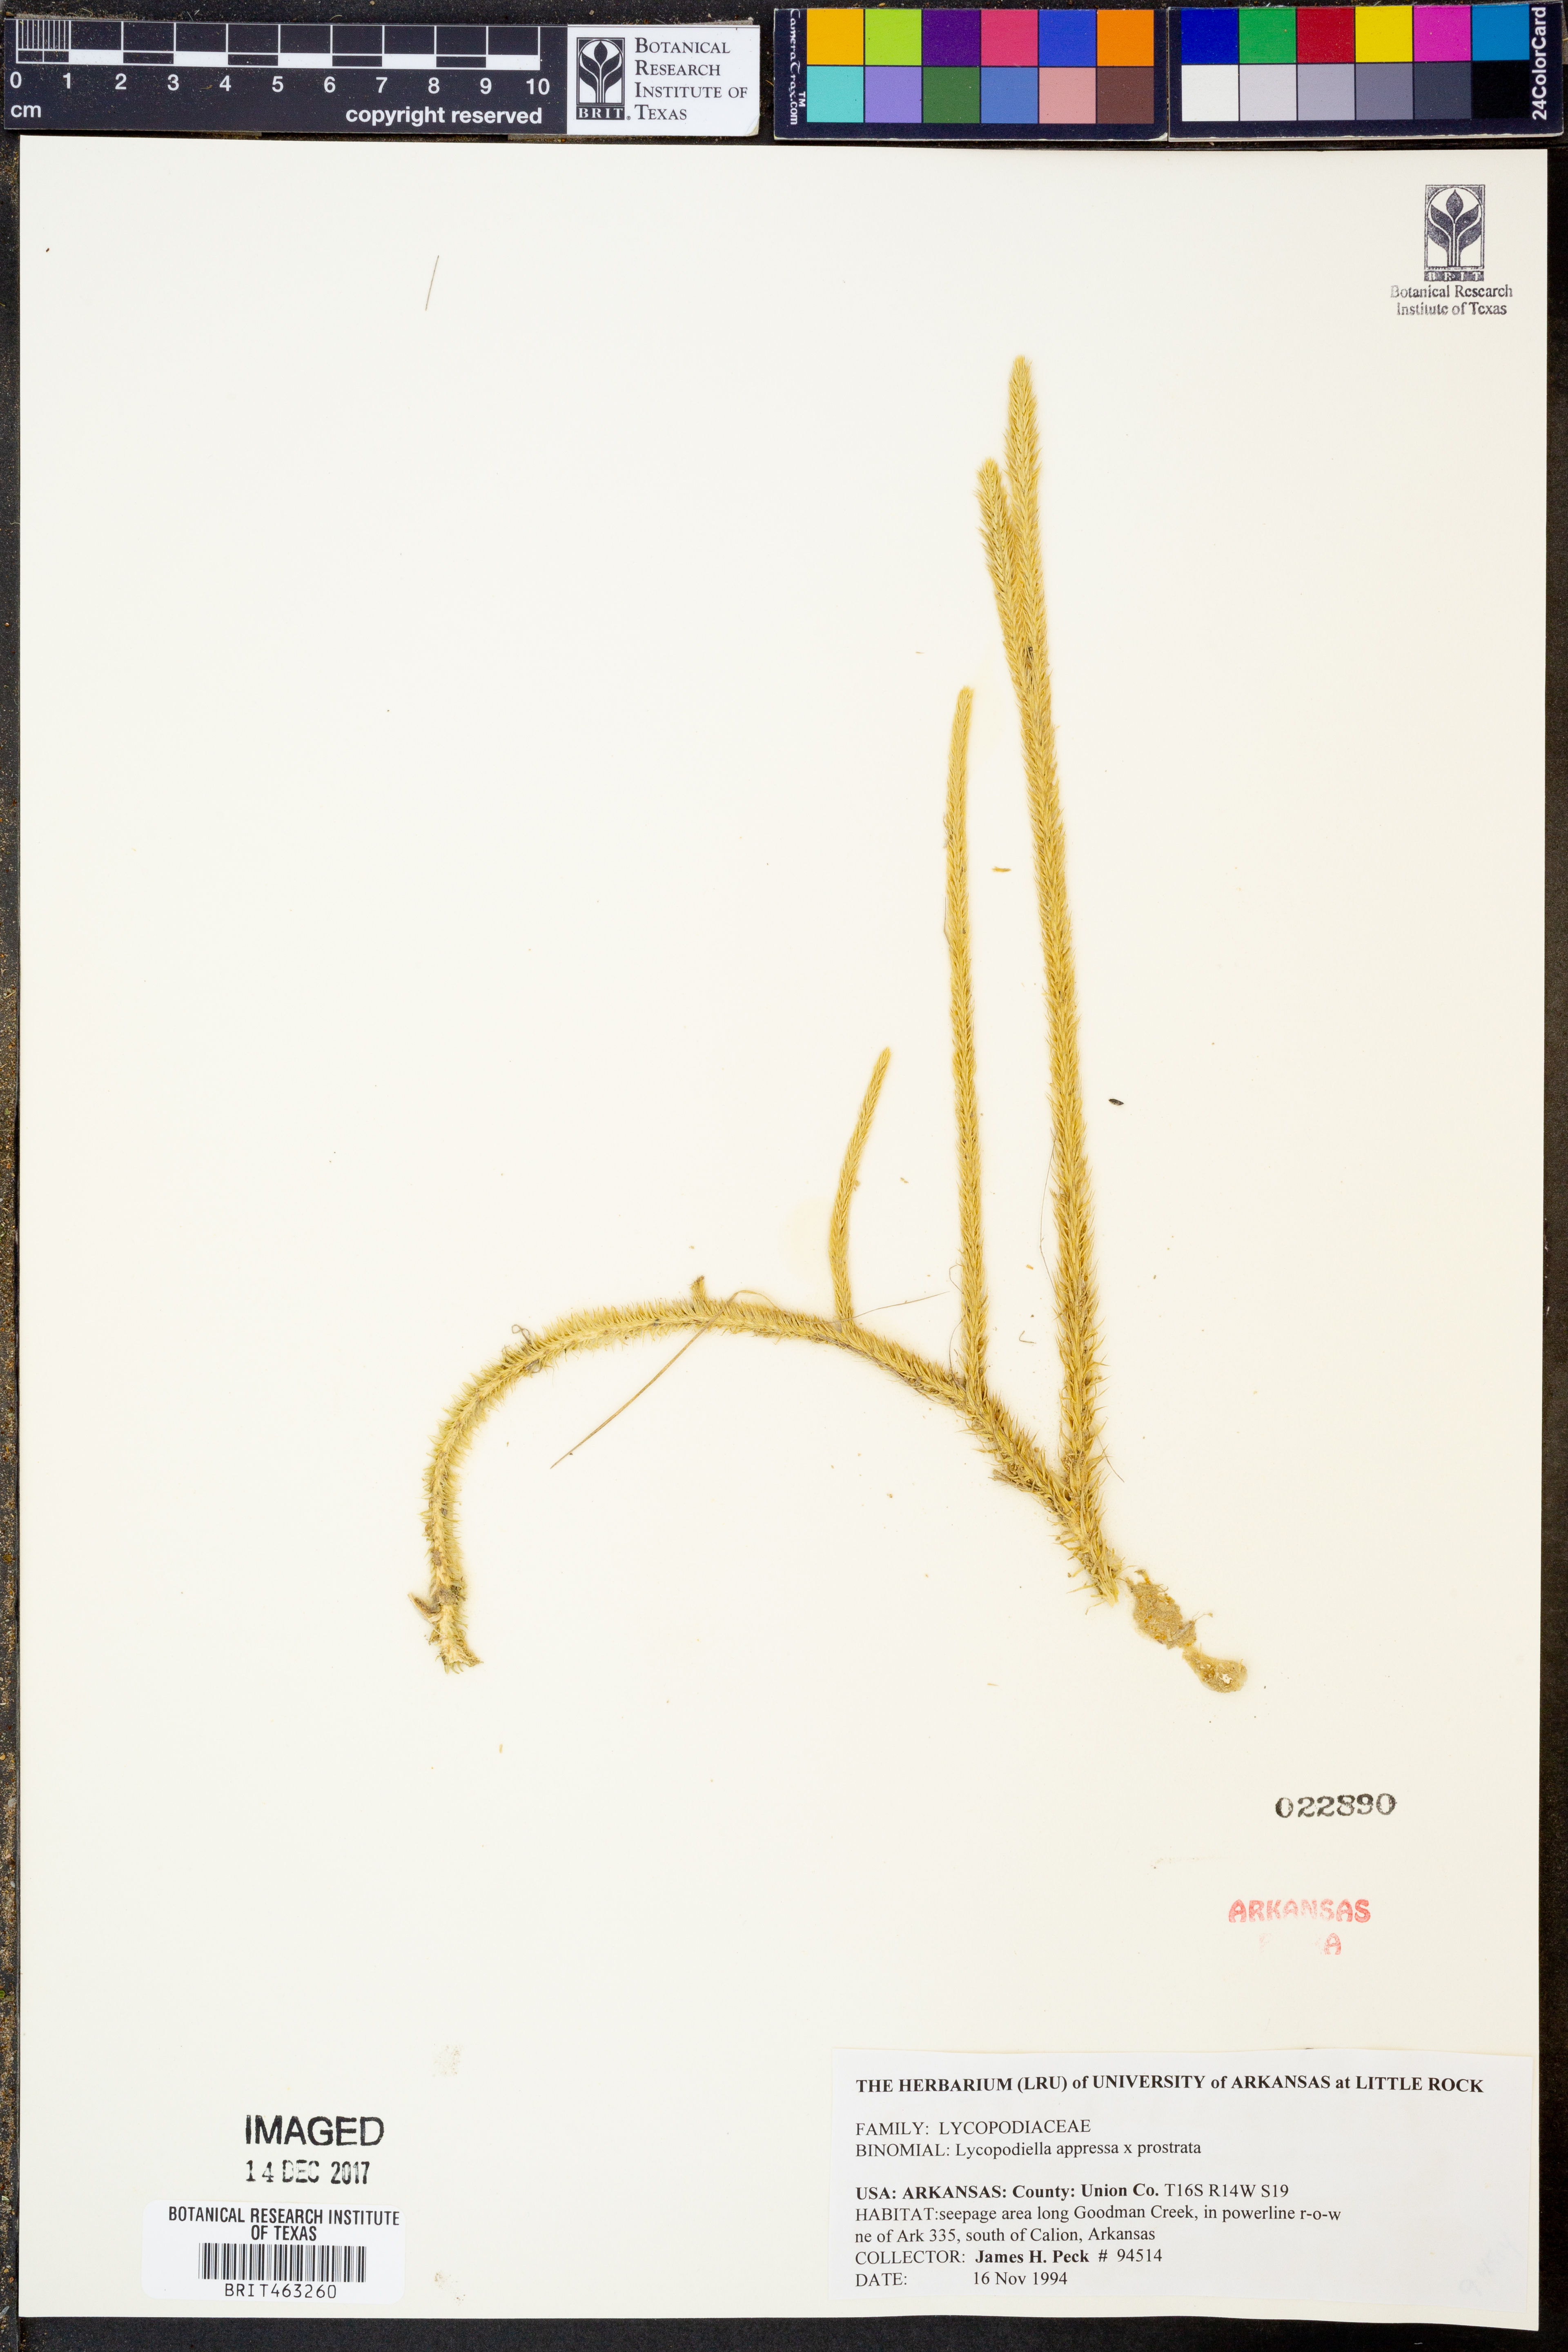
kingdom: Plantae
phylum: Tracheophyta
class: Lycopodiopsida
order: Lycopodiales
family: Lycopodiaceae
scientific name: Lycopodiaceae
